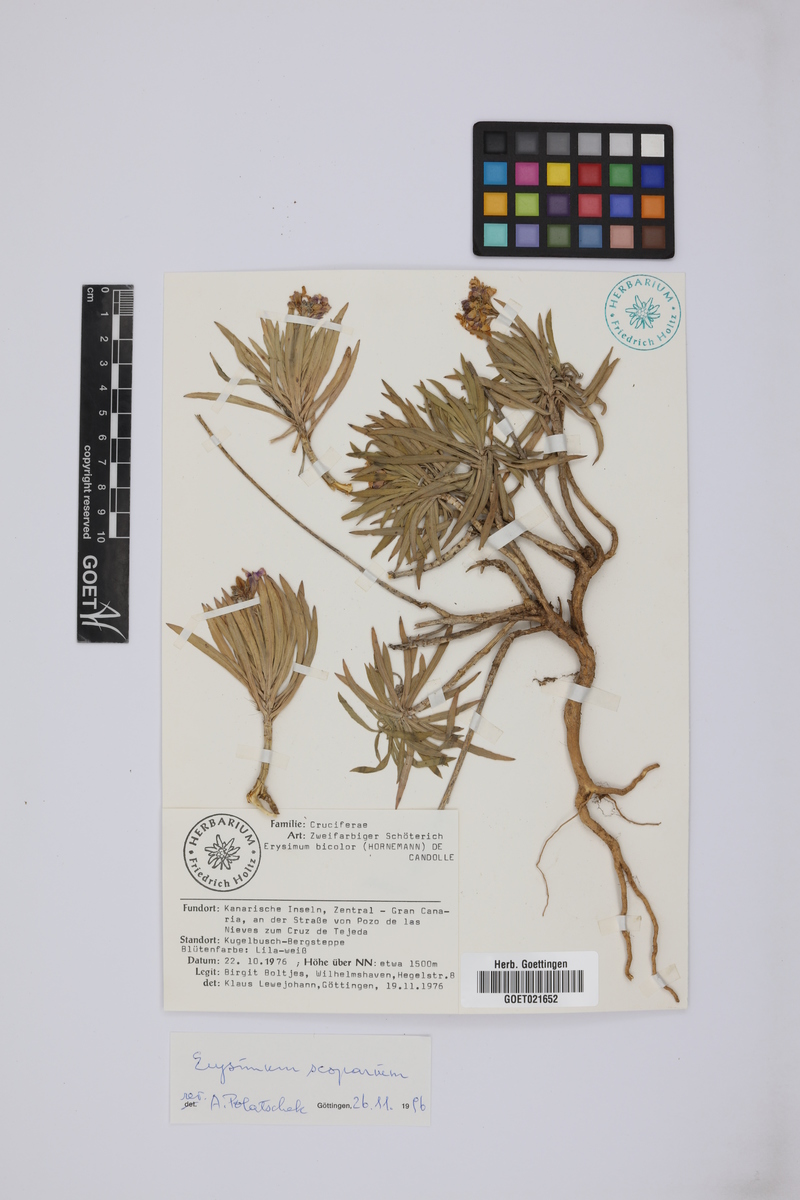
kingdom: Plantae
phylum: Tracheophyta
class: Magnoliopsida
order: Brassicales
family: Brassicaceae
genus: Erysimum
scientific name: Erysimum scoparium
